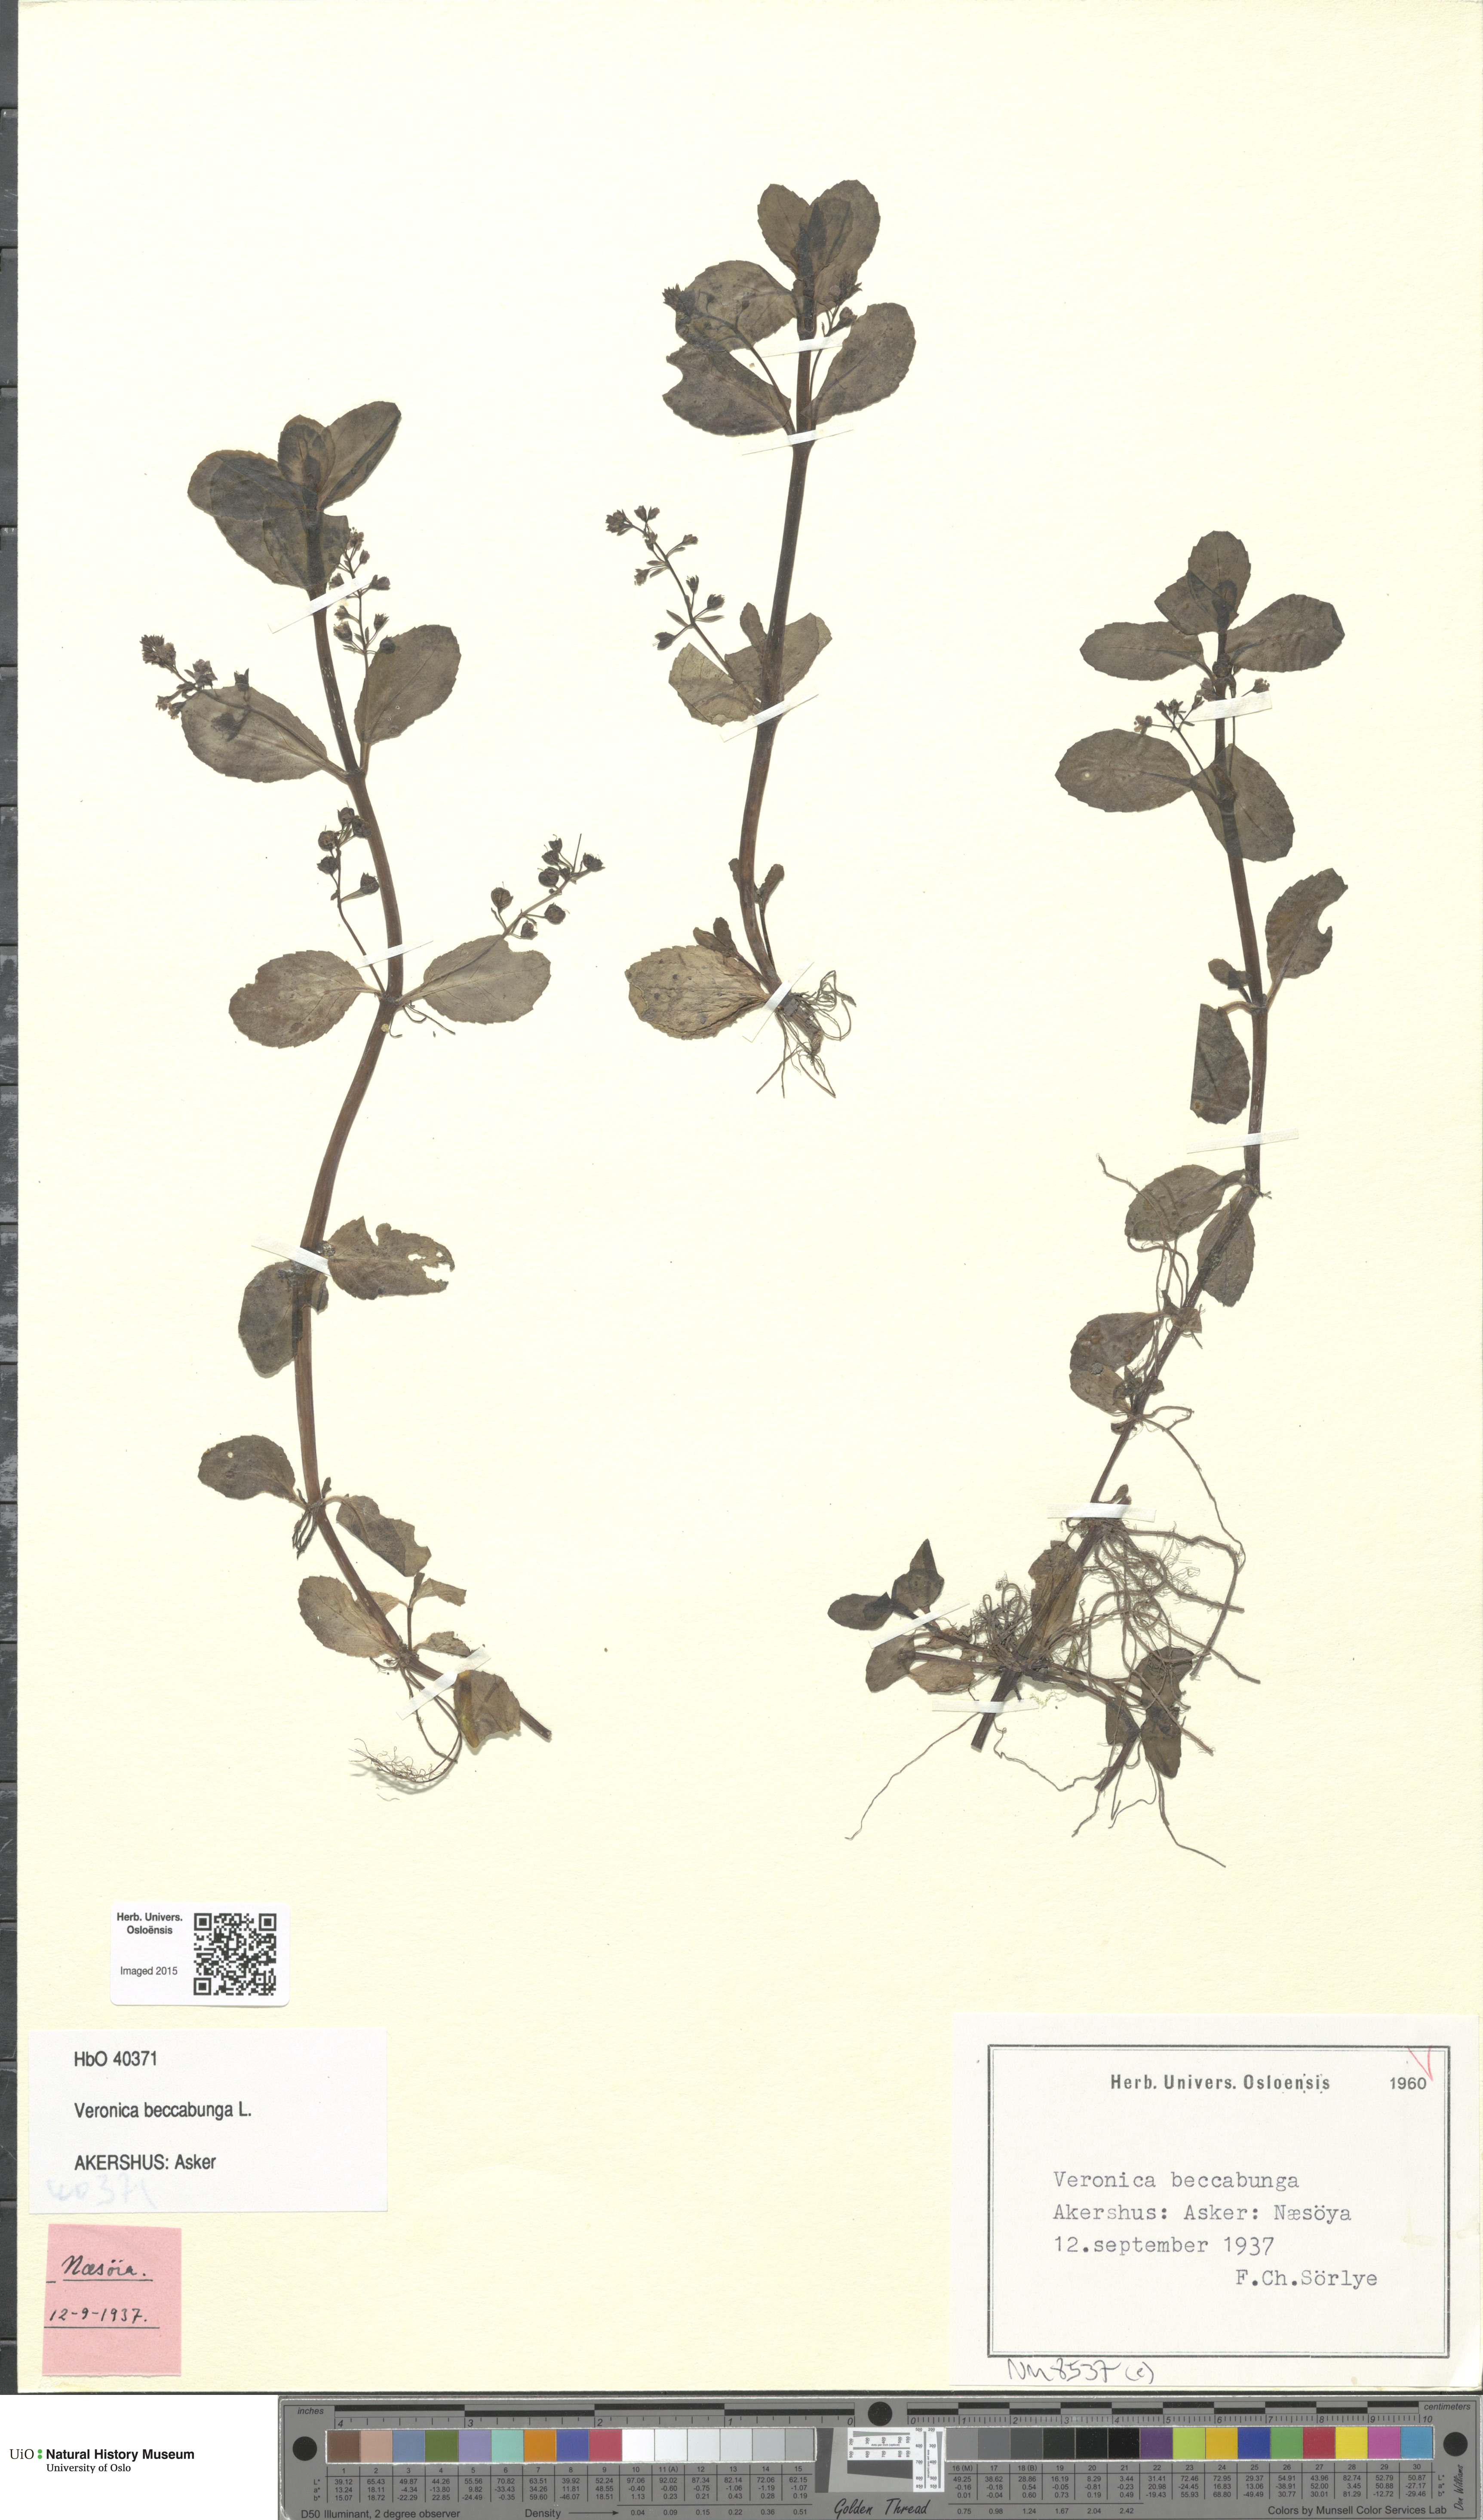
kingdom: Plantae
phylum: Tracheophyta
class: Magnoliopsida
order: Lamiales
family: Plantaginaceae
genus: Veronica
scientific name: Veronica beccabunga
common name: Brooklime
